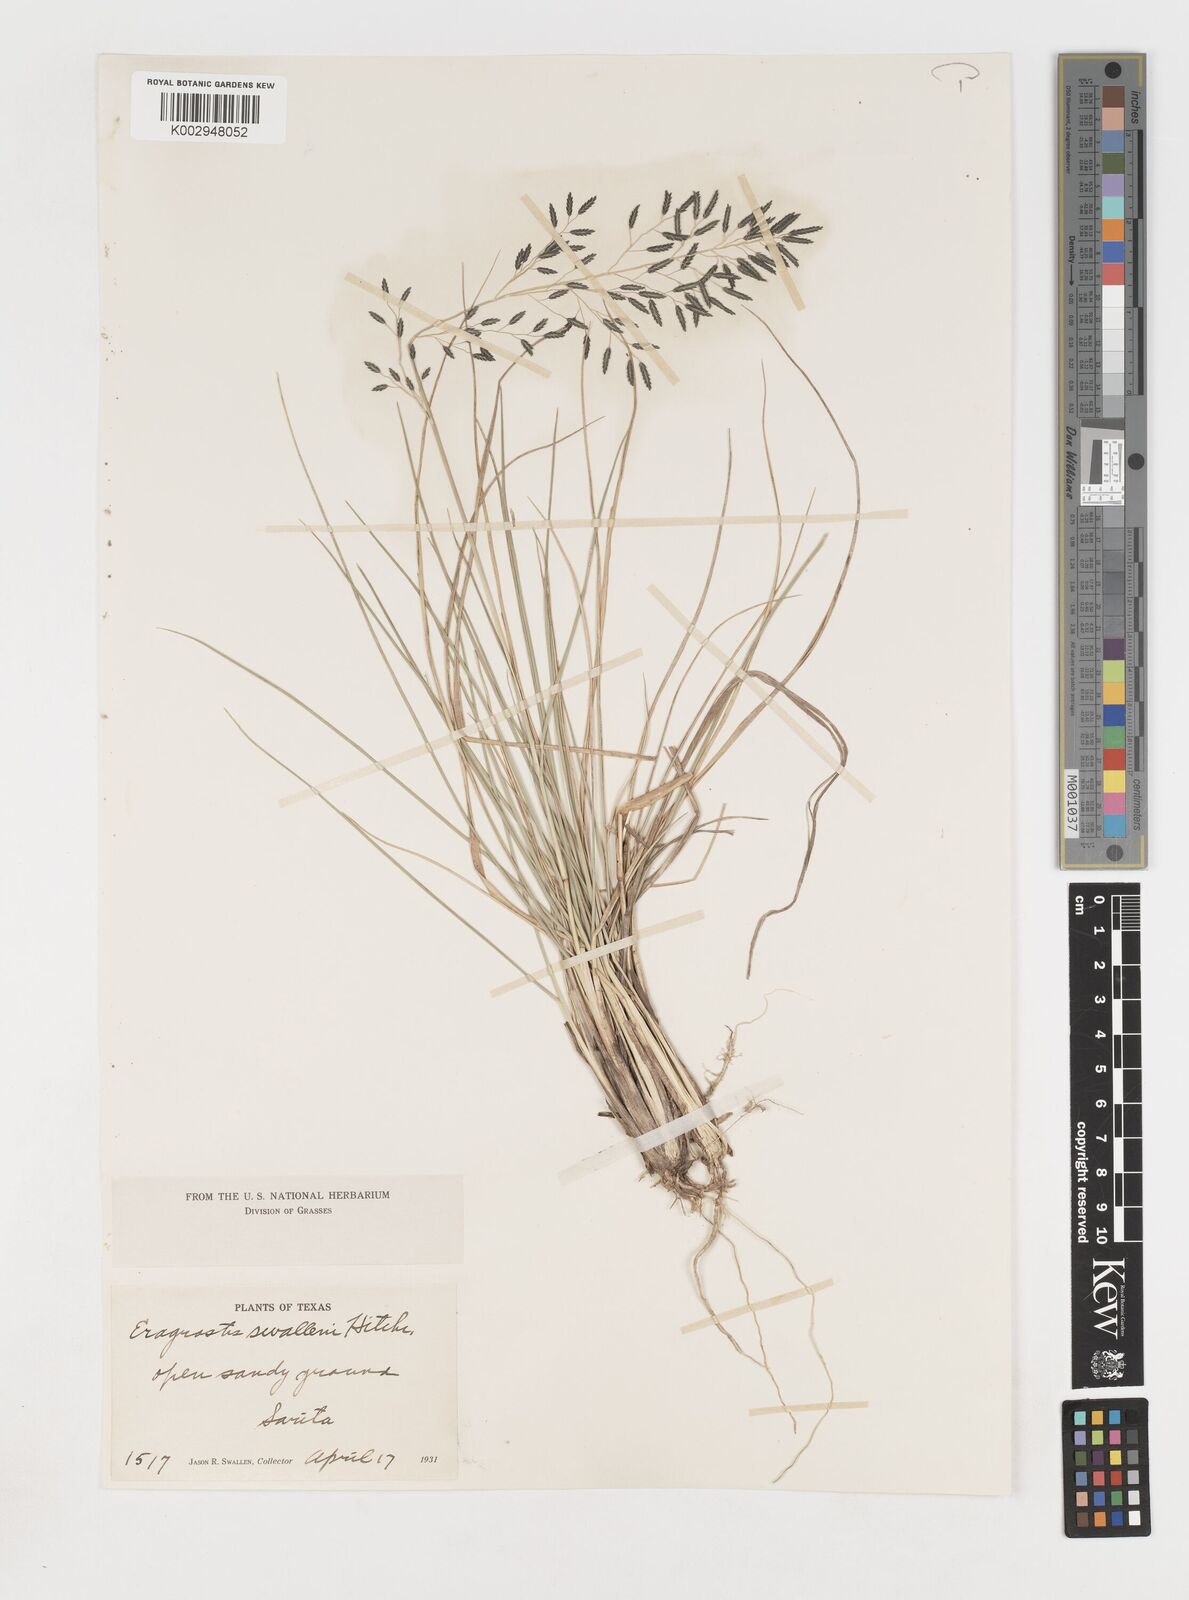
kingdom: Plantae
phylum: Tracheophyta
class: Liliopsida
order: Poales
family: Poaceae
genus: Eragrostis
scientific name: Eragrostis swallenii
